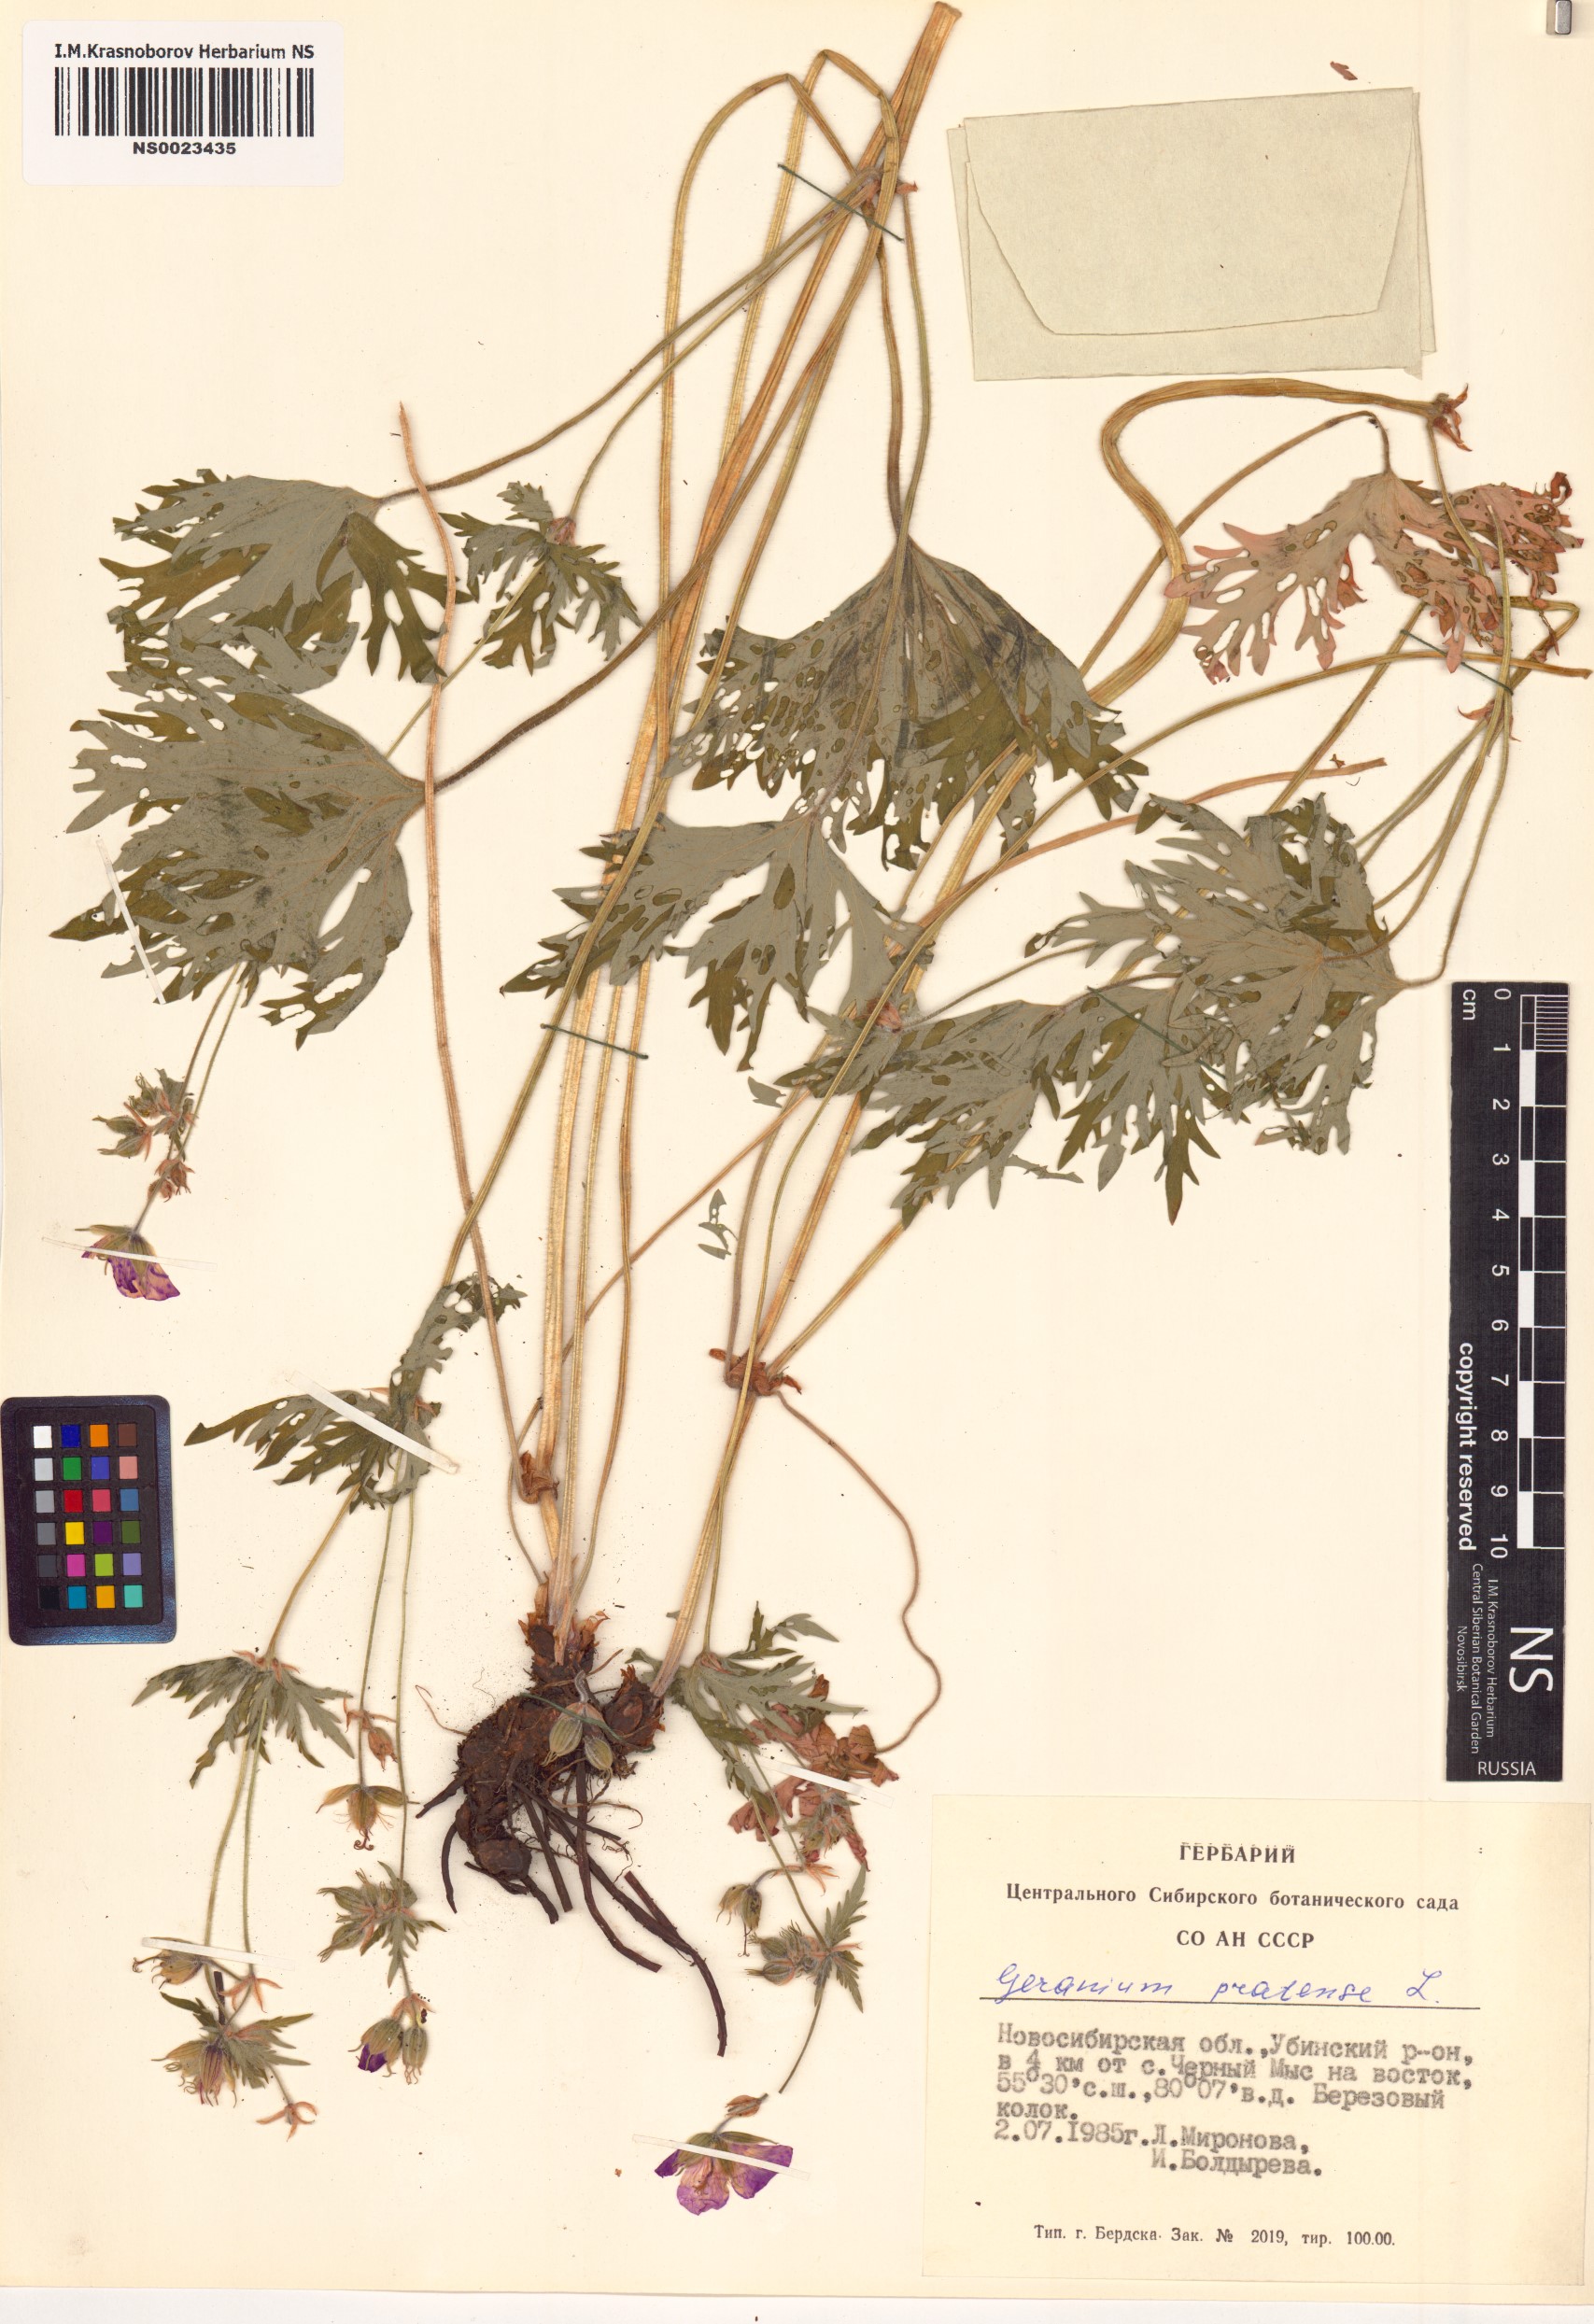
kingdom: Plantae
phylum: Tracheophyta
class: Magnoliopsida
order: Geraniales
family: Geraniaceae
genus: Geranium
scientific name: Geranium pratense
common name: Meadow crane's-bill
